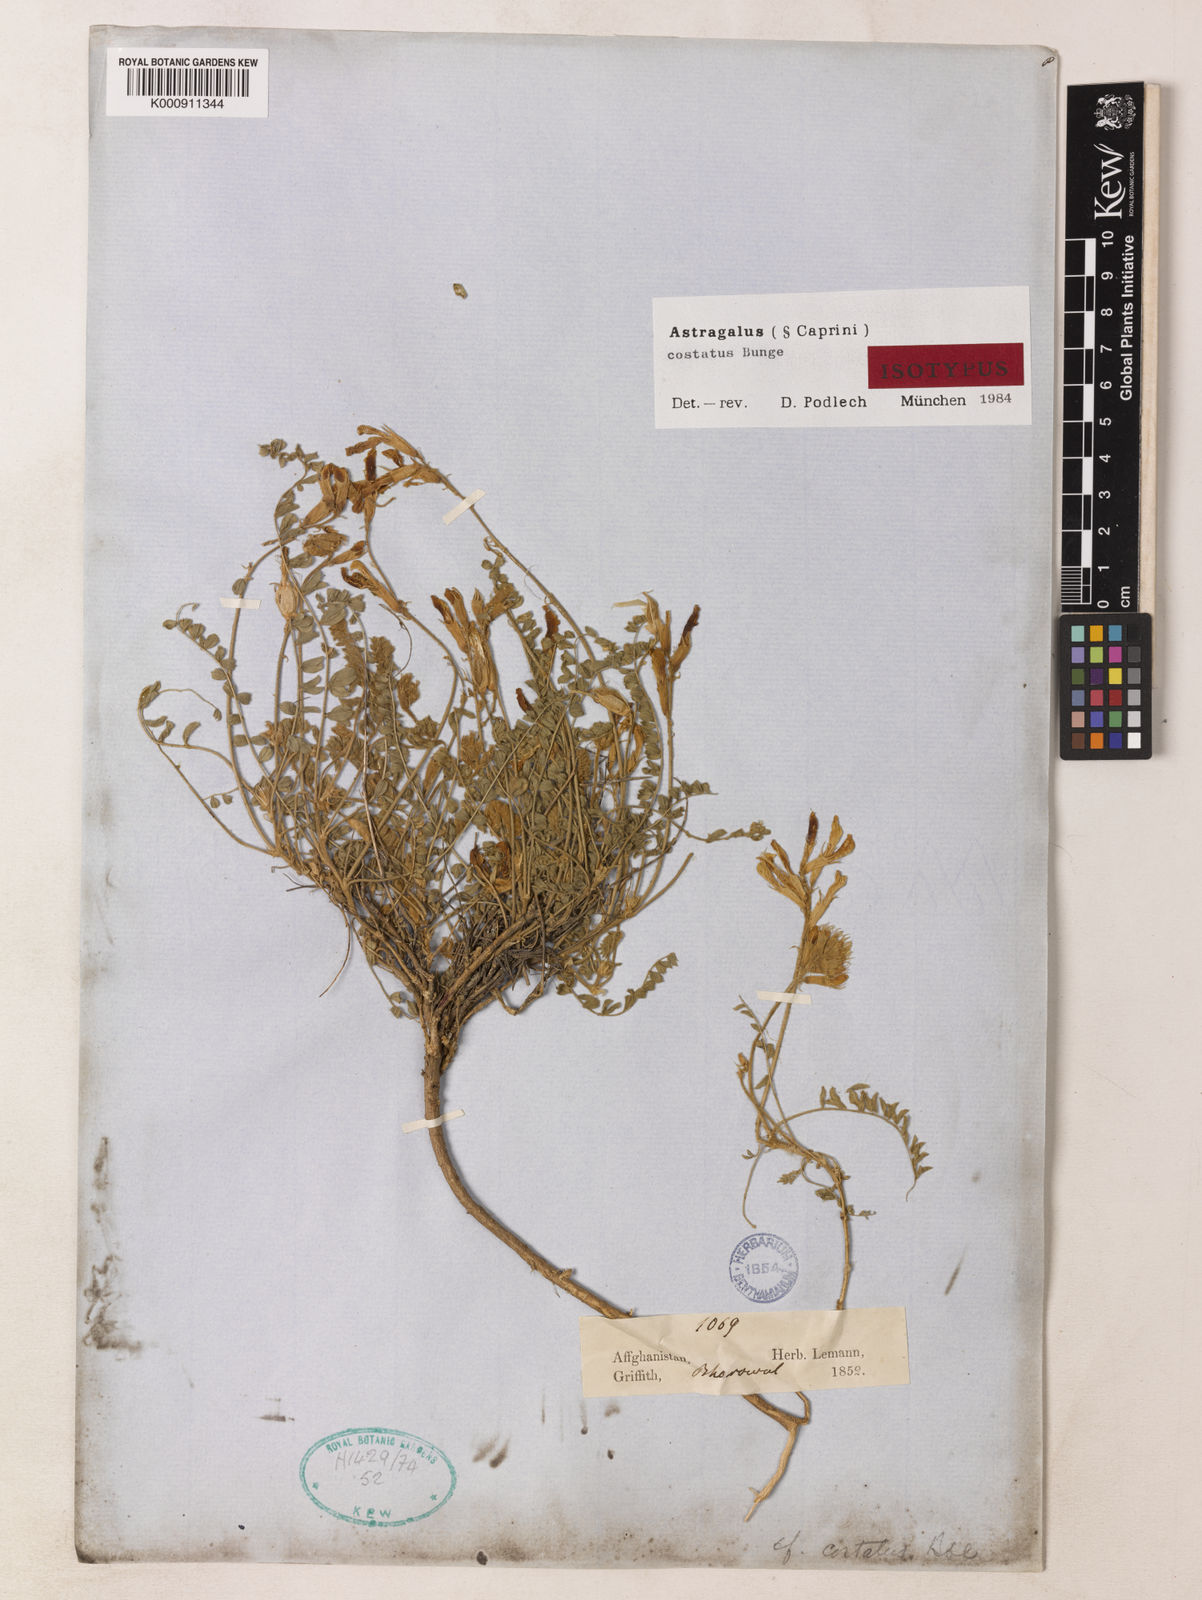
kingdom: Plantae
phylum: Tracheophyta
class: Magnoliopsida
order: Fabales
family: Fabaceae
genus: Astragalus
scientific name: Astragalus costatus
